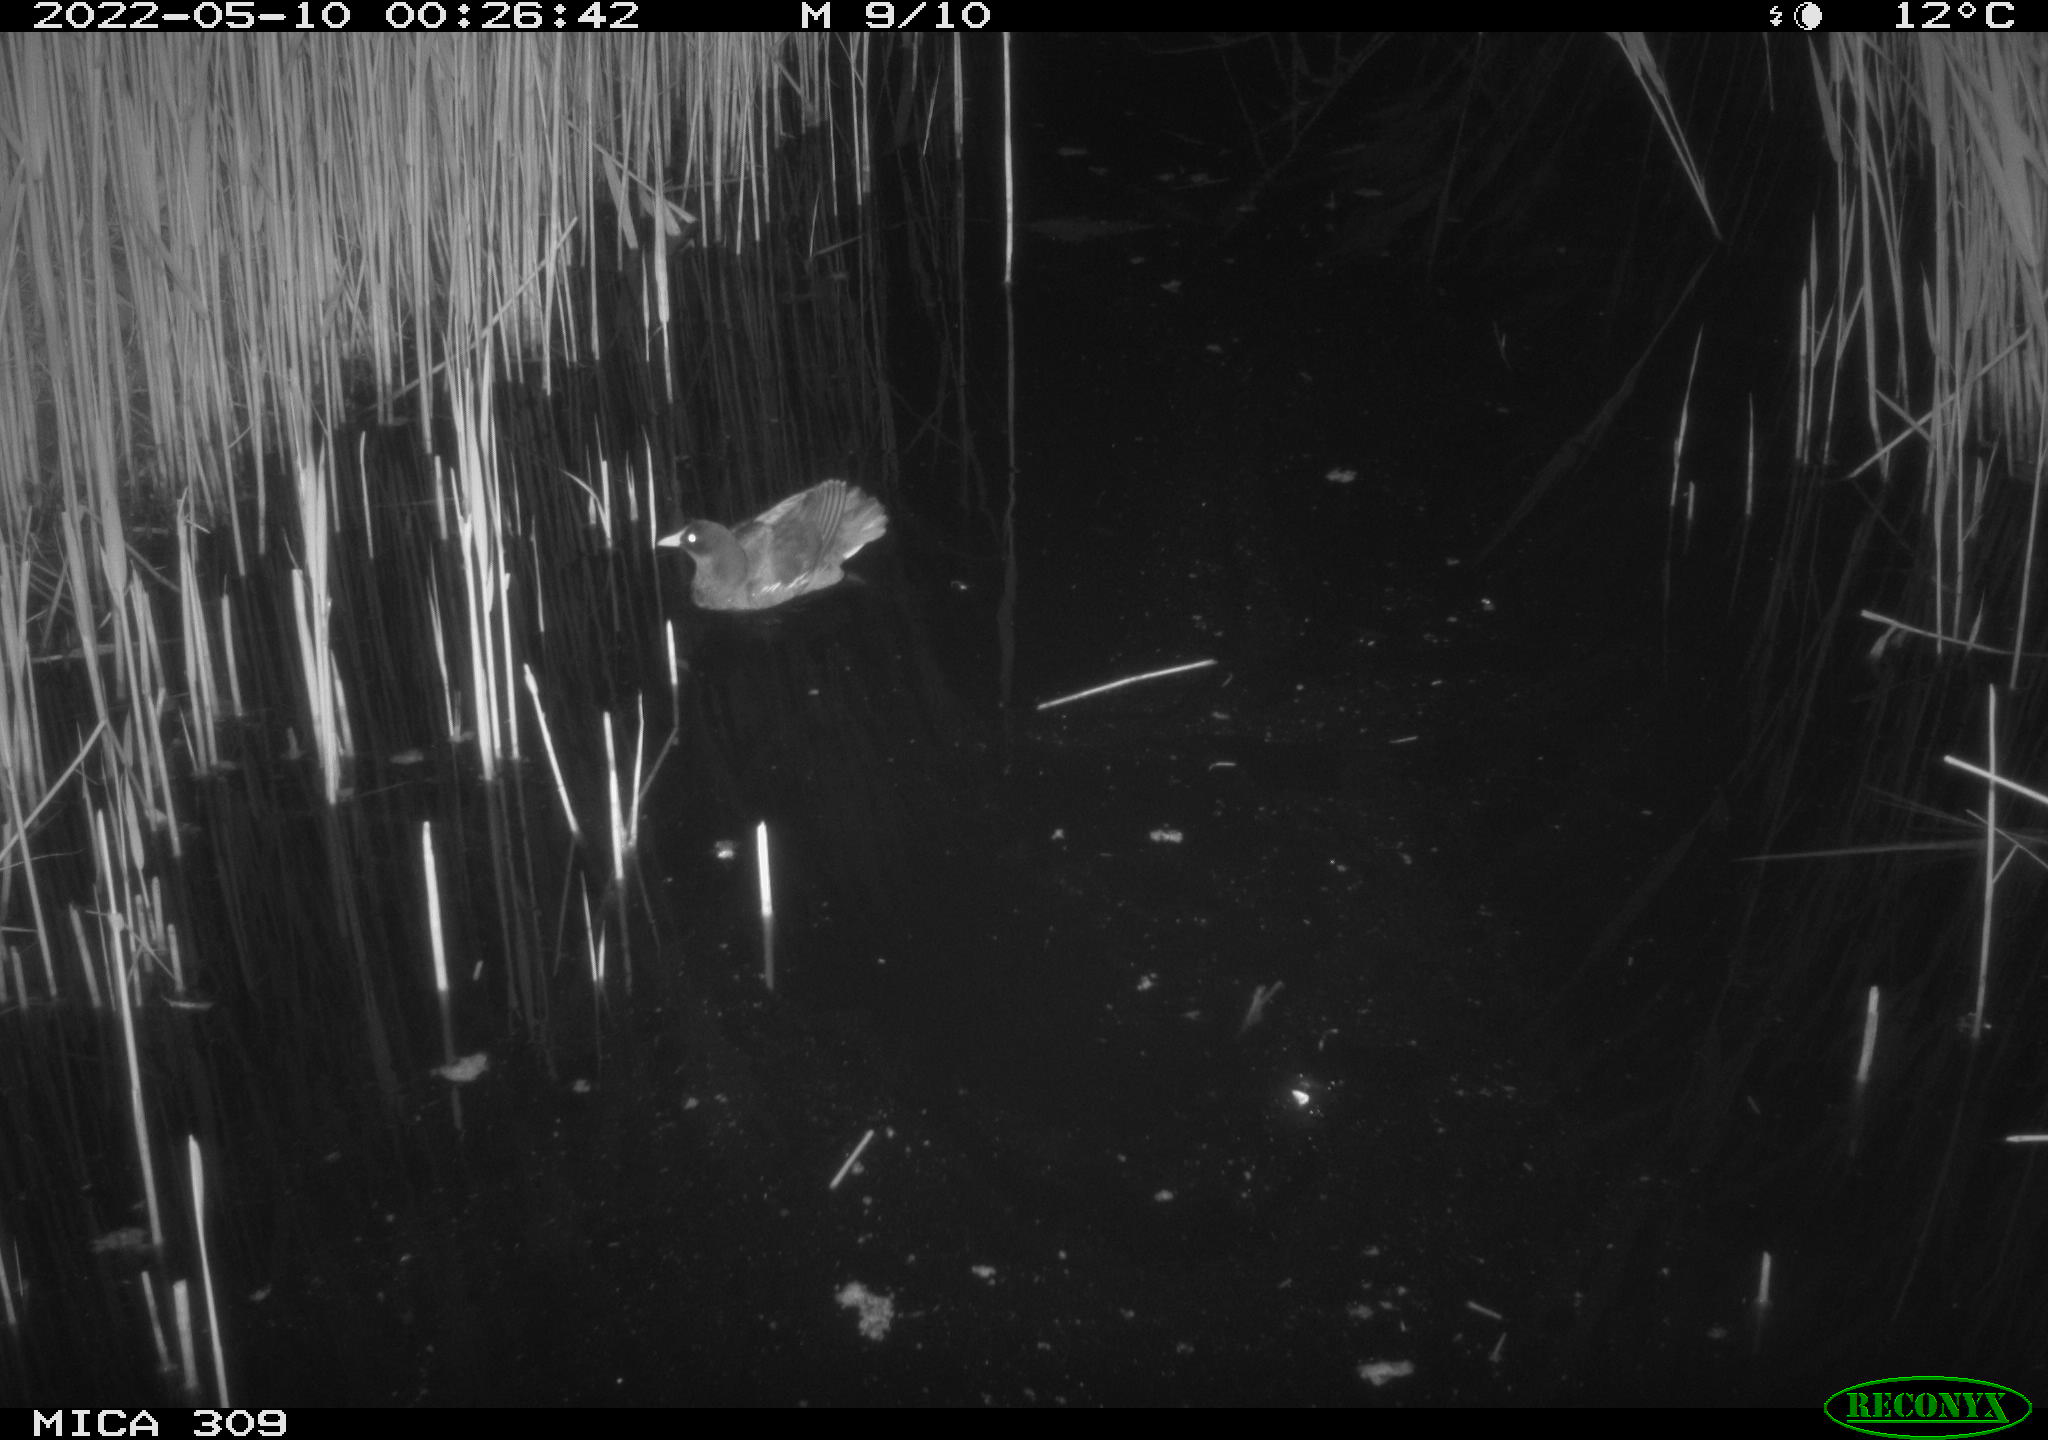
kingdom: Animalia
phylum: Chordata
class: Aves
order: Gruiformes
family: Rallidae
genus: Gallinula
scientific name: Gallinula chloropus
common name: Common moorhen
